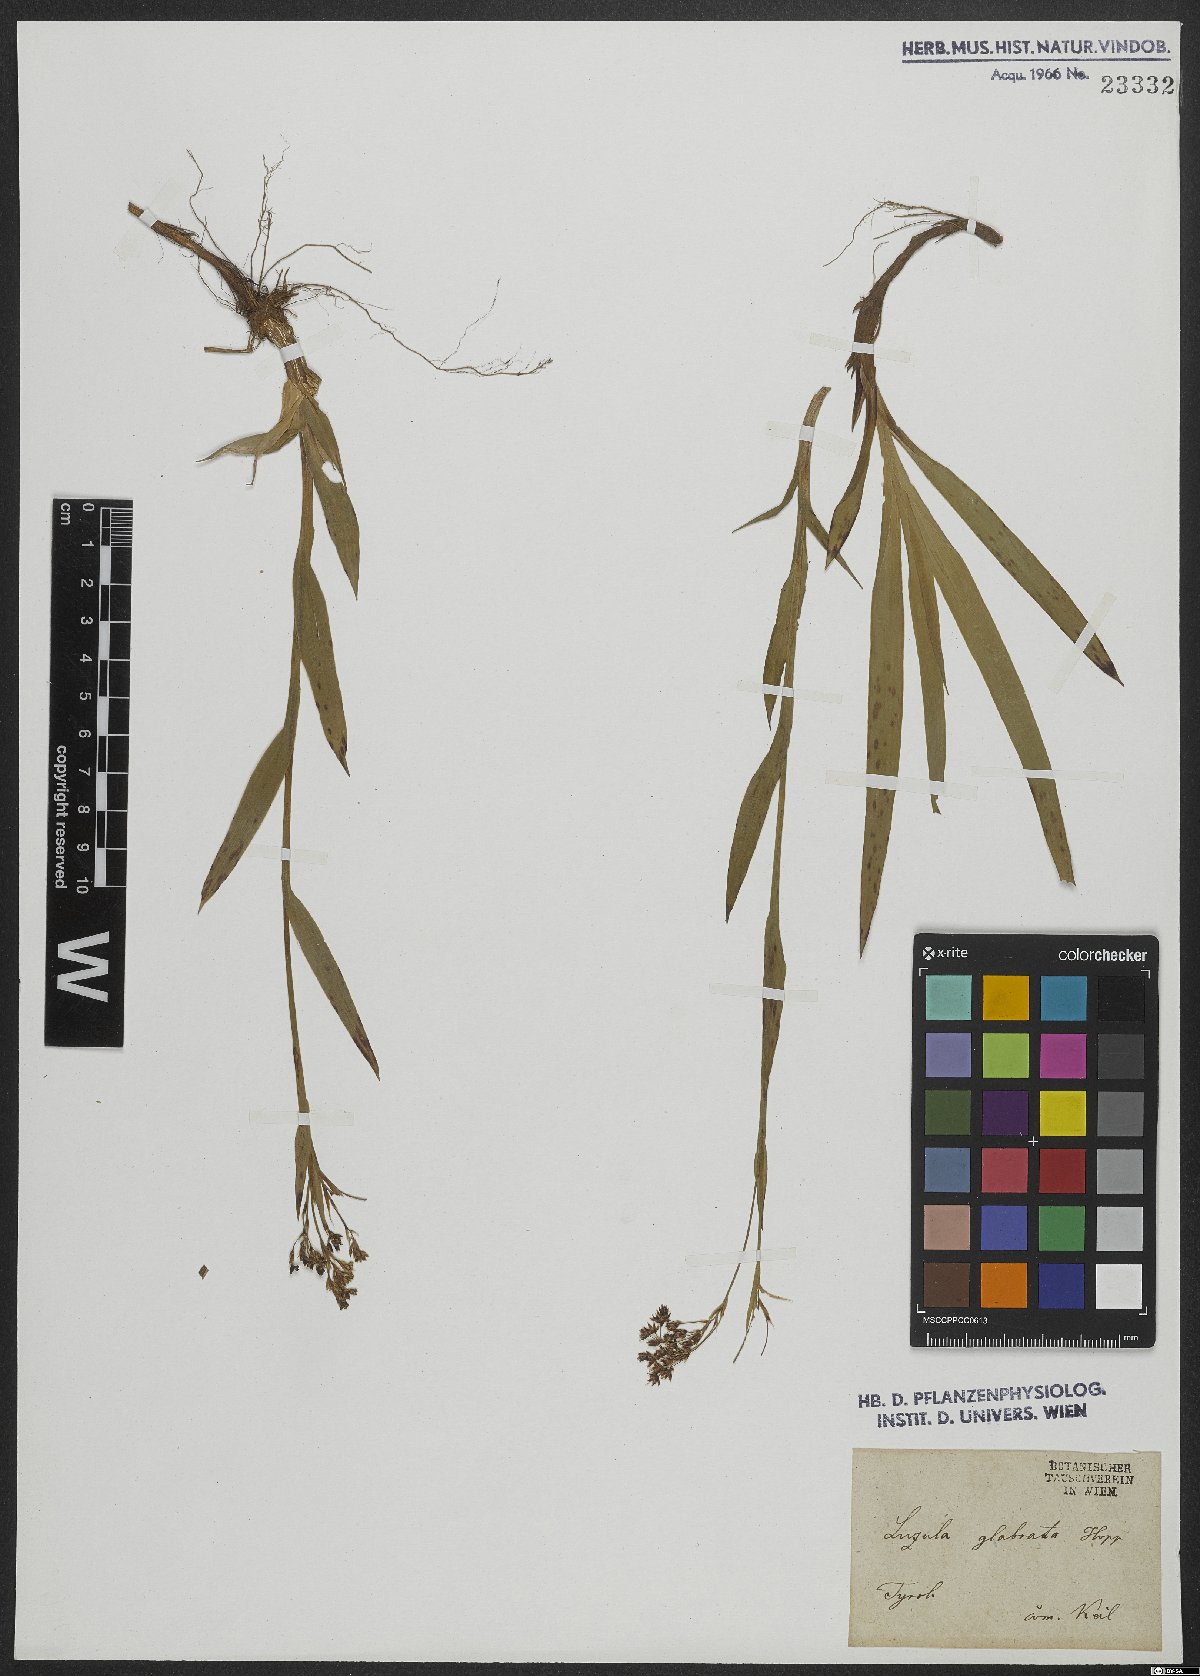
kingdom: Plantae
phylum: Tracheophyta
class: Liliopsida
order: Poales
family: Juncaceae
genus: Luzula
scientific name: Luzula glabrata
